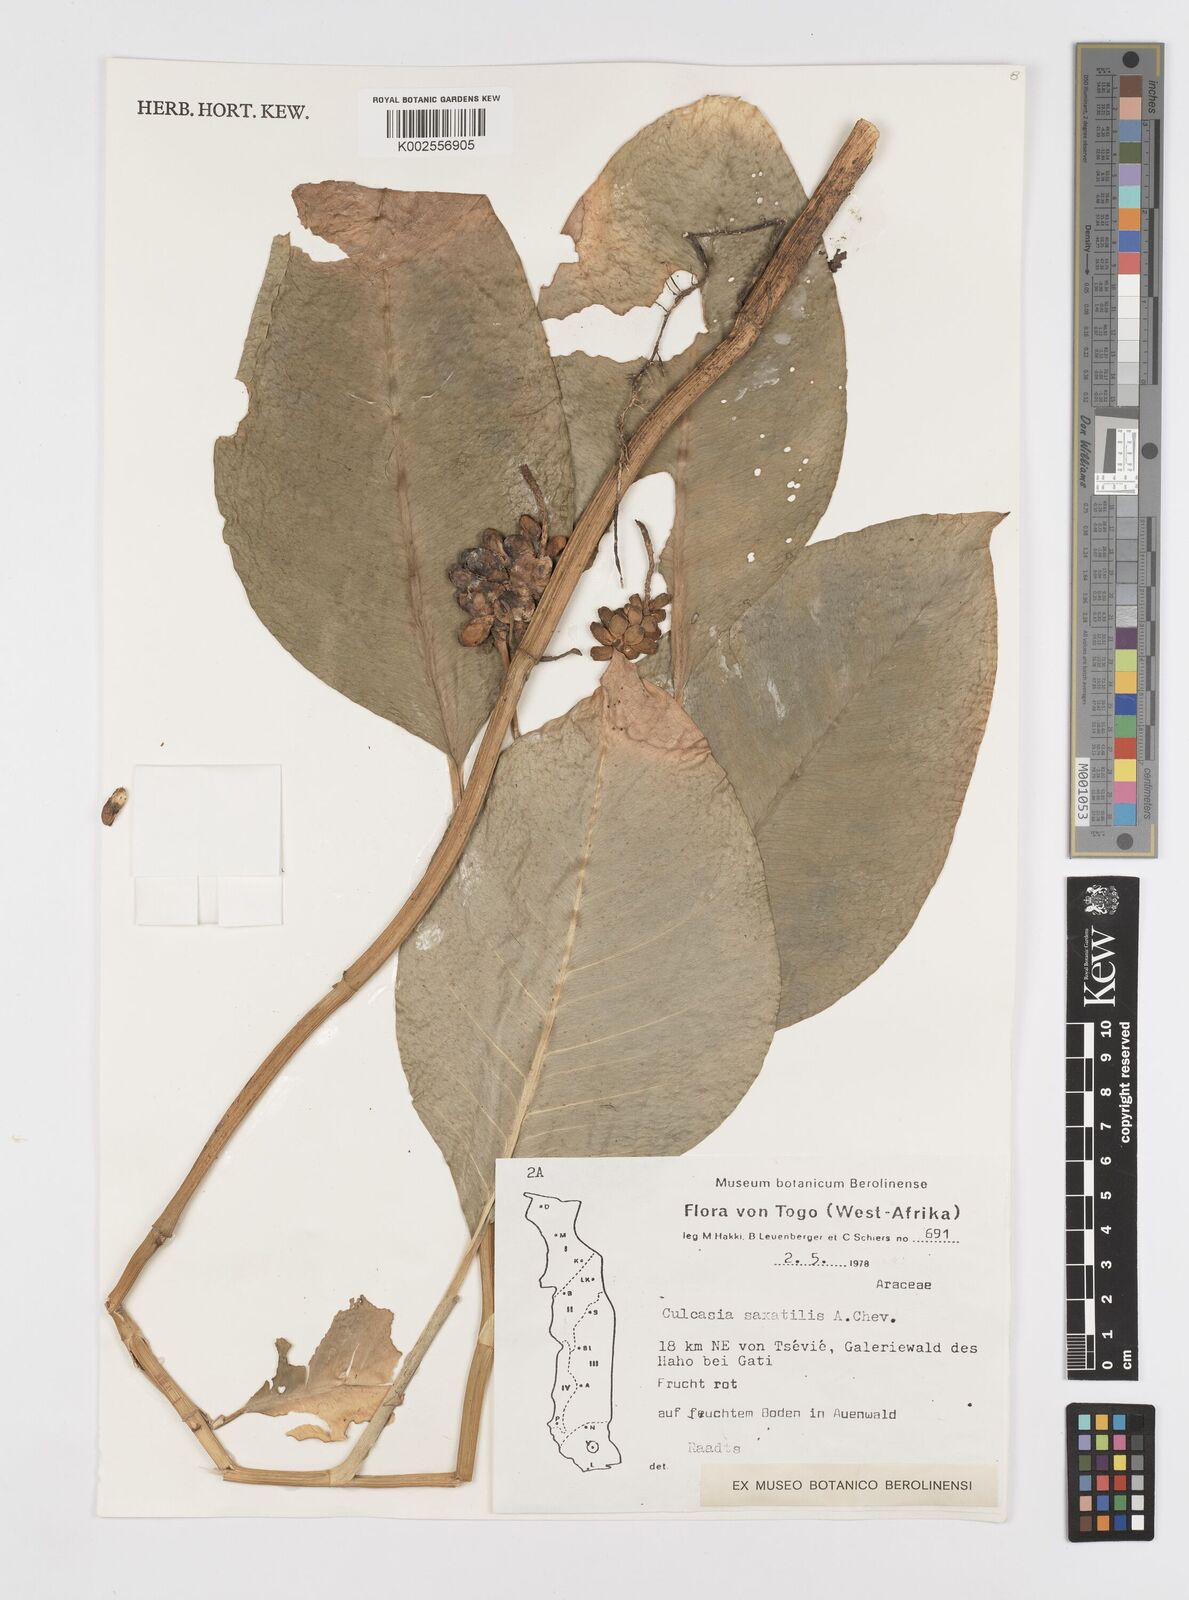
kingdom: Plantae
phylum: Tracheophyta
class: Liliopsida
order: Alismatales
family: Araceae
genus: Culcasia
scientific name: Culcasia scandens
